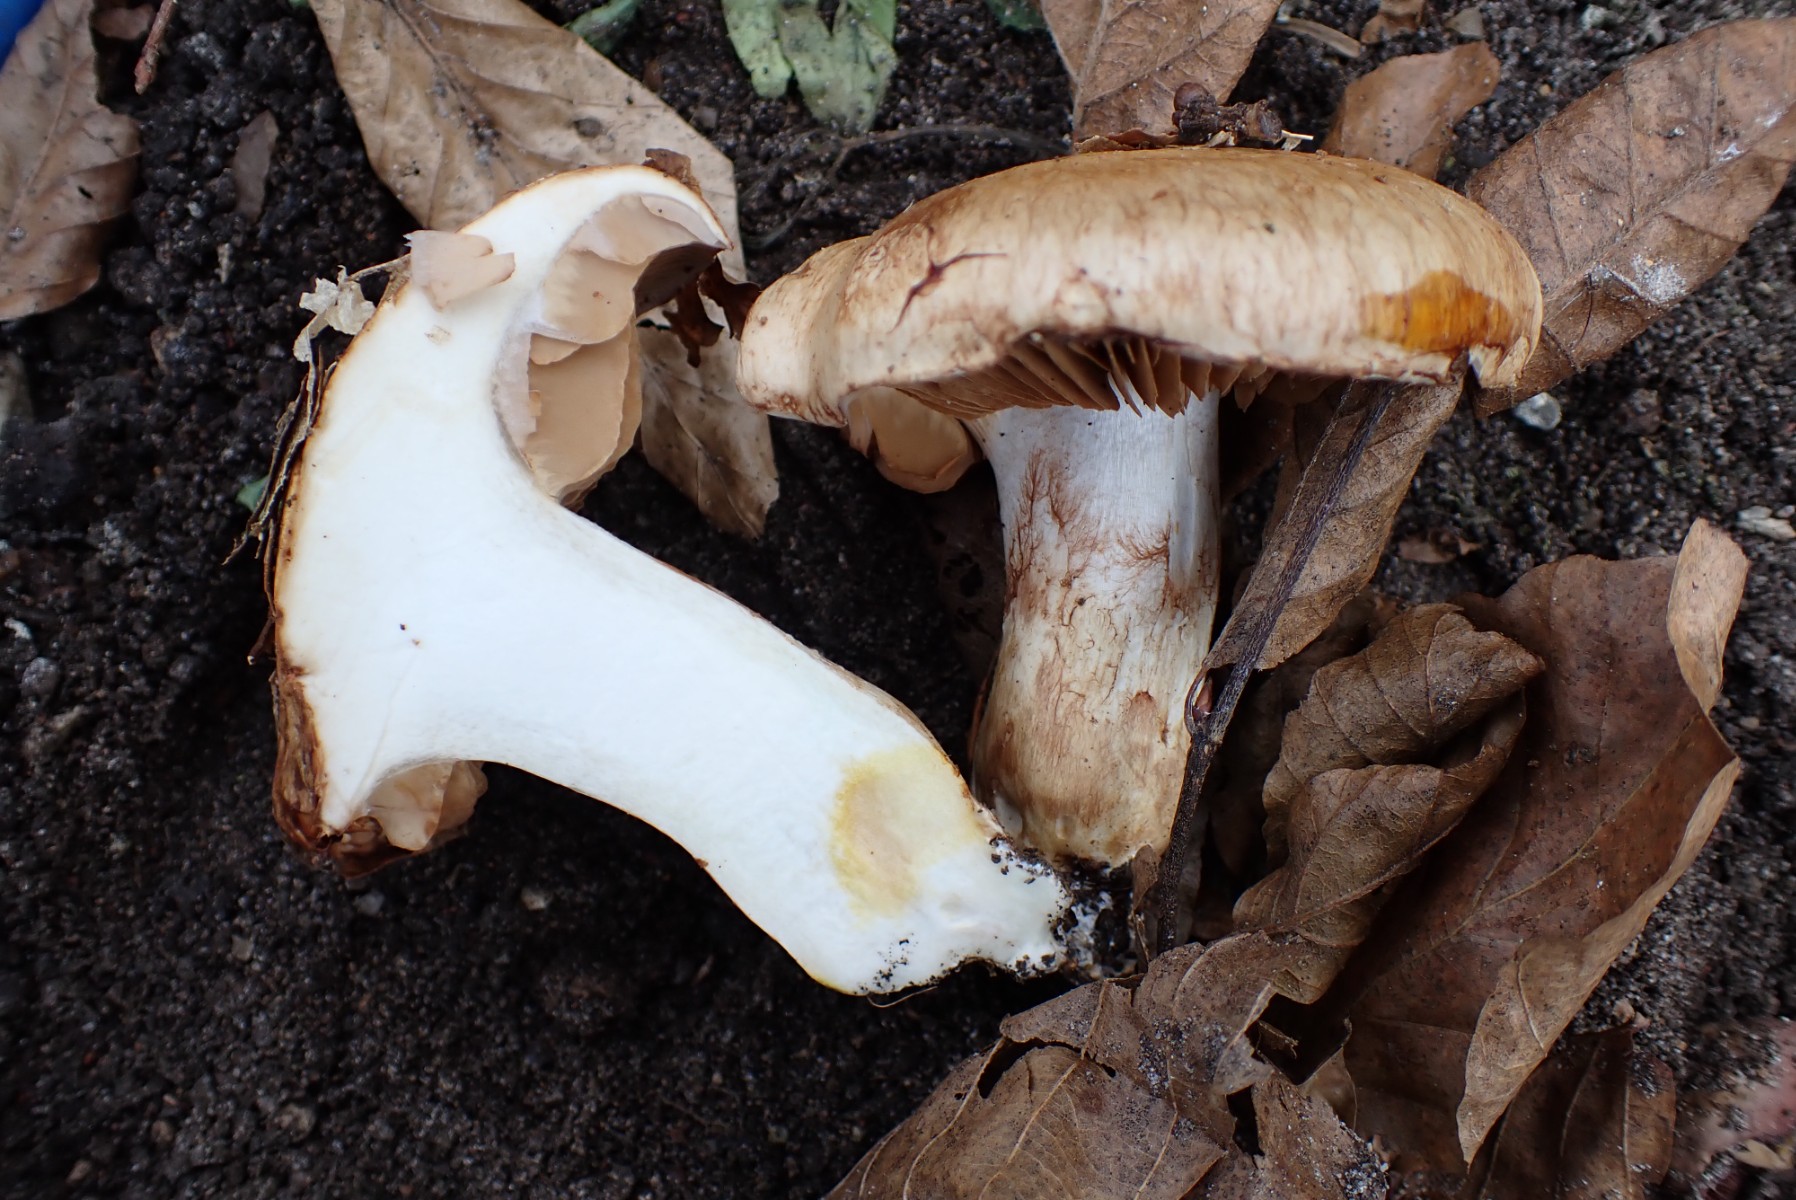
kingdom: Fungi
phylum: Basidiomycota
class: Agaricomycetes
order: Agaricales
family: Cortinariaceae
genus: Phlegmacium
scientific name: Phlegmacium pseudodaulnoyae
